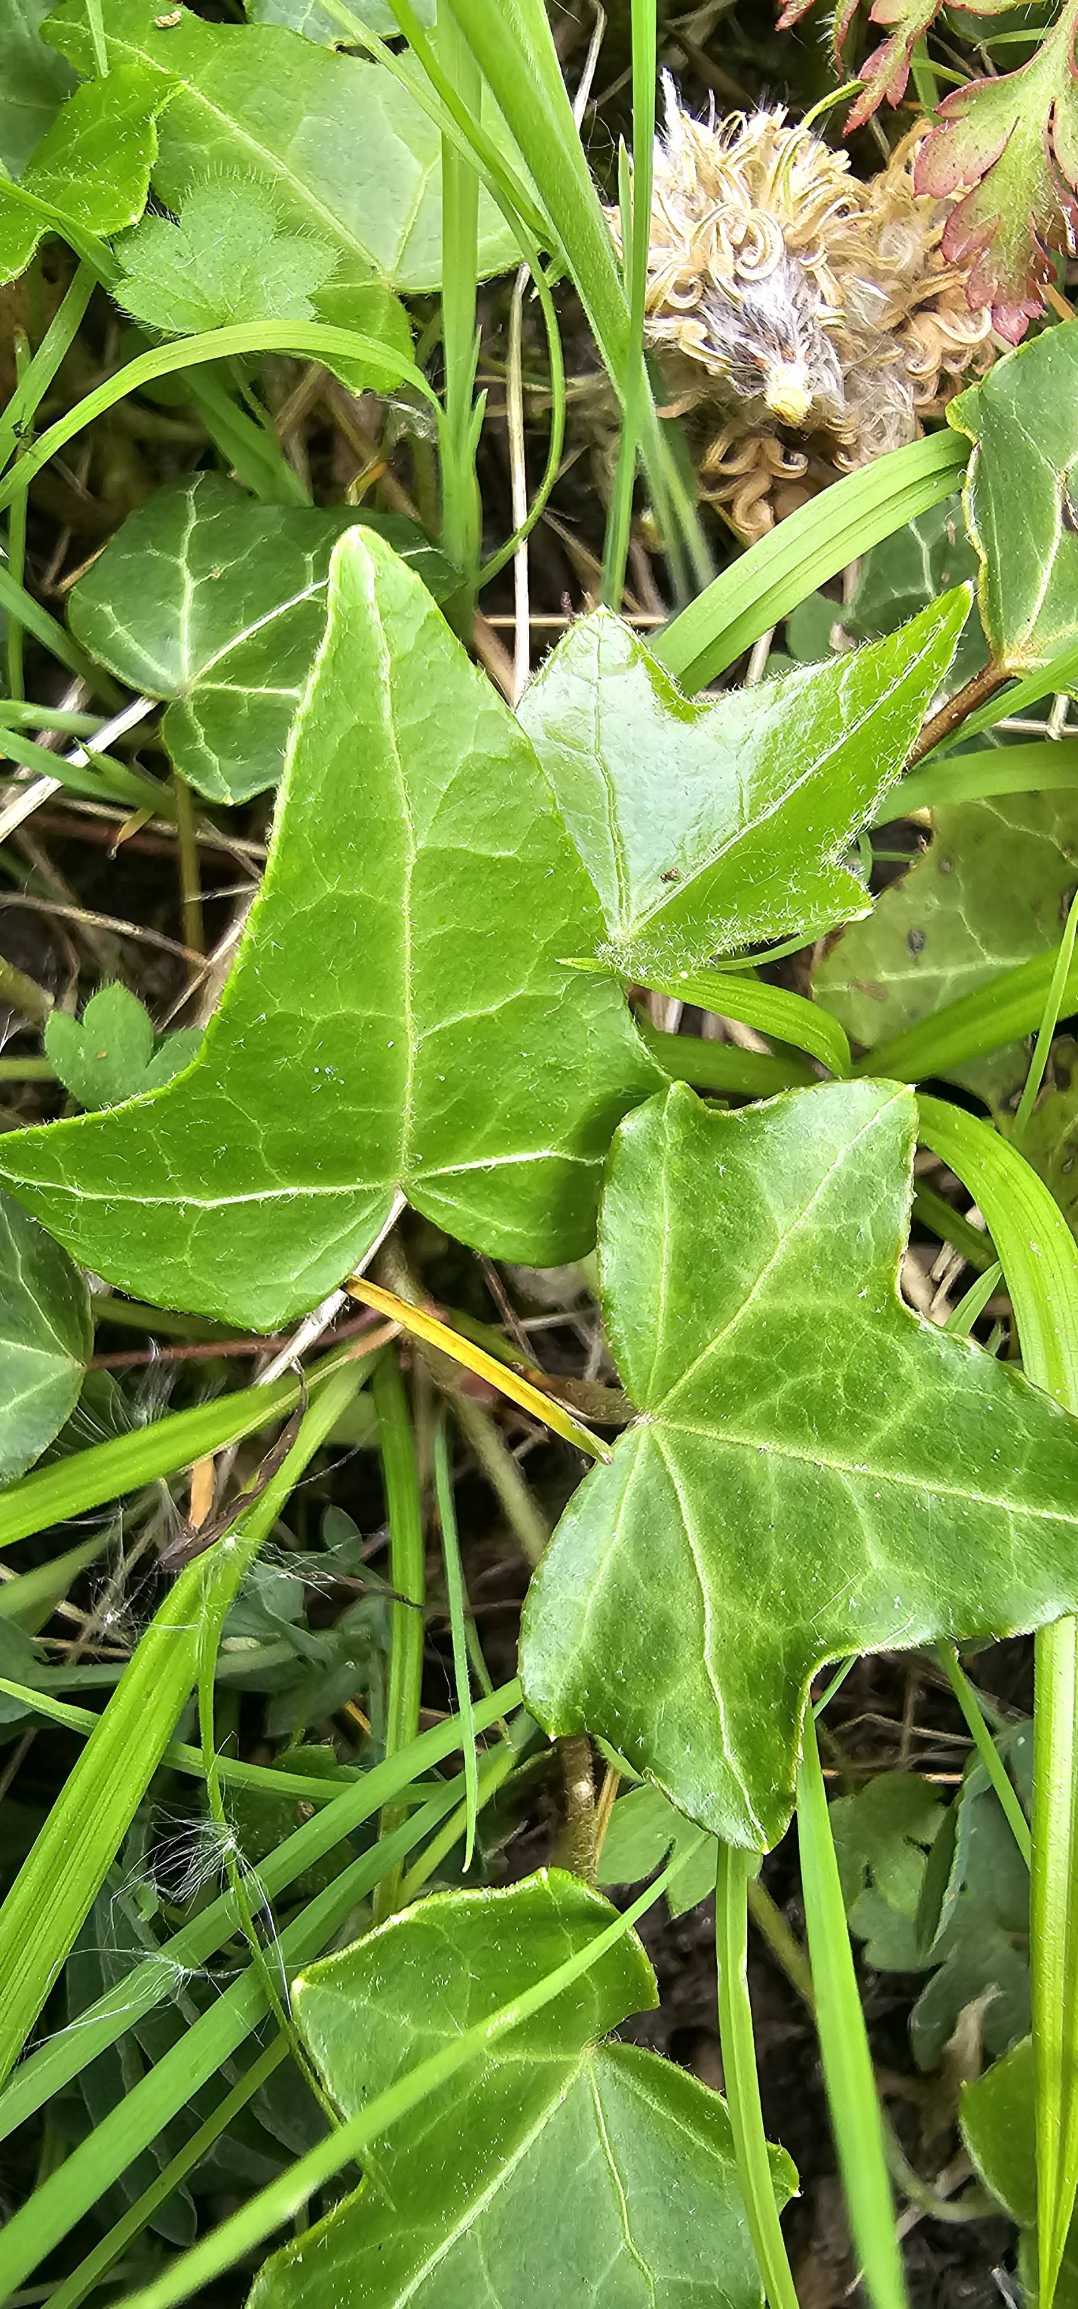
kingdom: Plantae
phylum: Tracheophyta
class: Magnoliopsida
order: Apiales
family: Araliaceae
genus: Hedera
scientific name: Hedera helix
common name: Vedbend
